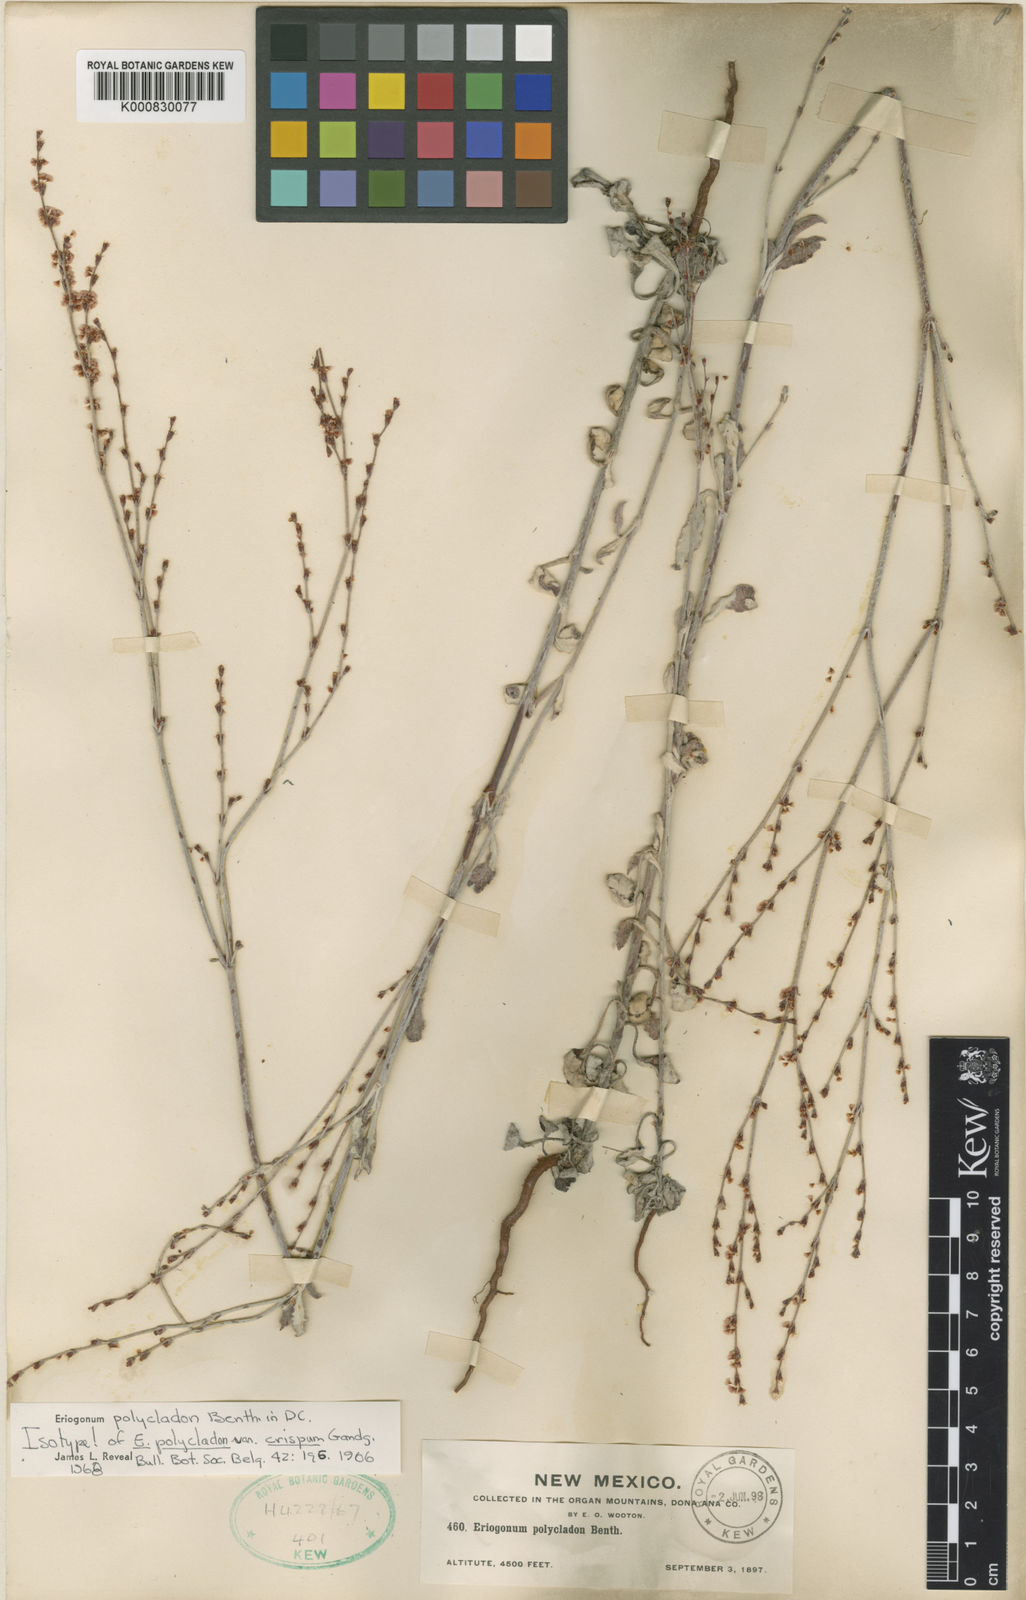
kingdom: Plantae
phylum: Tracheophyta
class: Magnoliopsida
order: Caryophyllales
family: Polygonaceae
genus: Eriogonum
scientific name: Eriogonum polycladon
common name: Sorrel wild buckwheat
